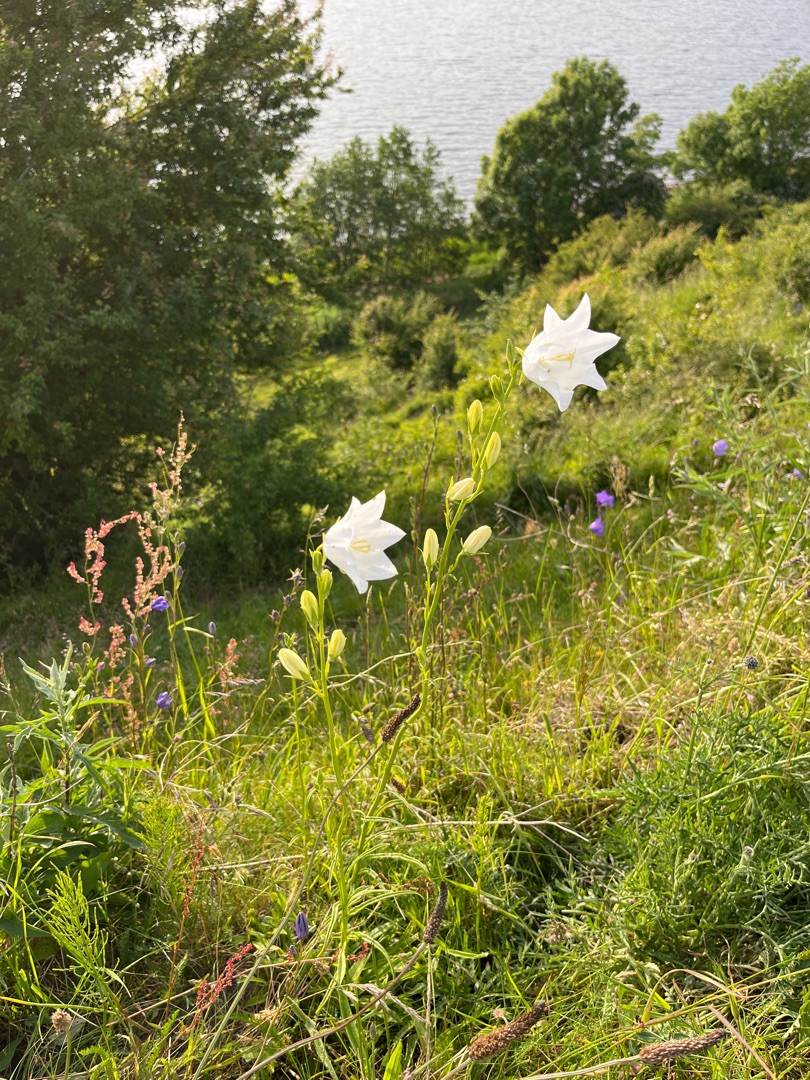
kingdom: Plantae
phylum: Tracheophyta
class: Magnoliopsida
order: Asterales
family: Campanulaceae
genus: Campanula
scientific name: Campanula persicifolia
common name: Smalbladet klokke
